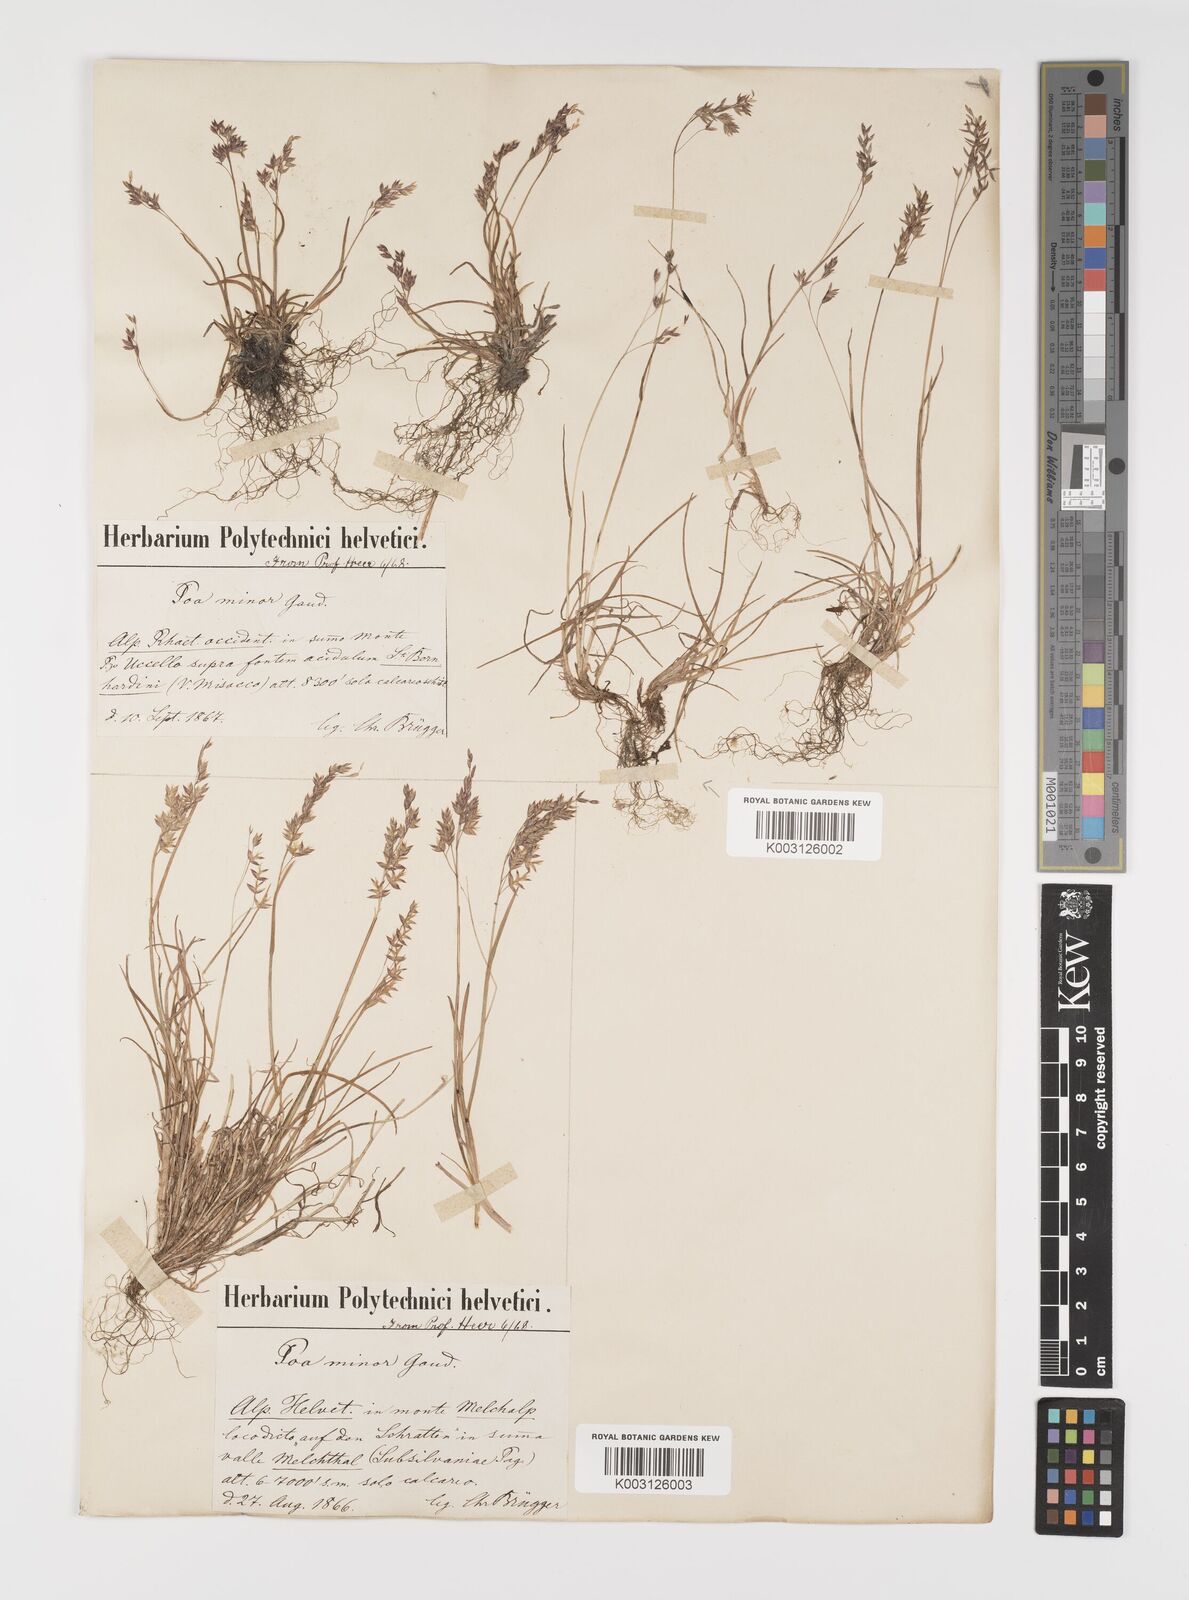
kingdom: Plantae
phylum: Tracheophyta
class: Liliopsida
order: Poales
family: Poaceae
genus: Poa
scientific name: Poa minor
